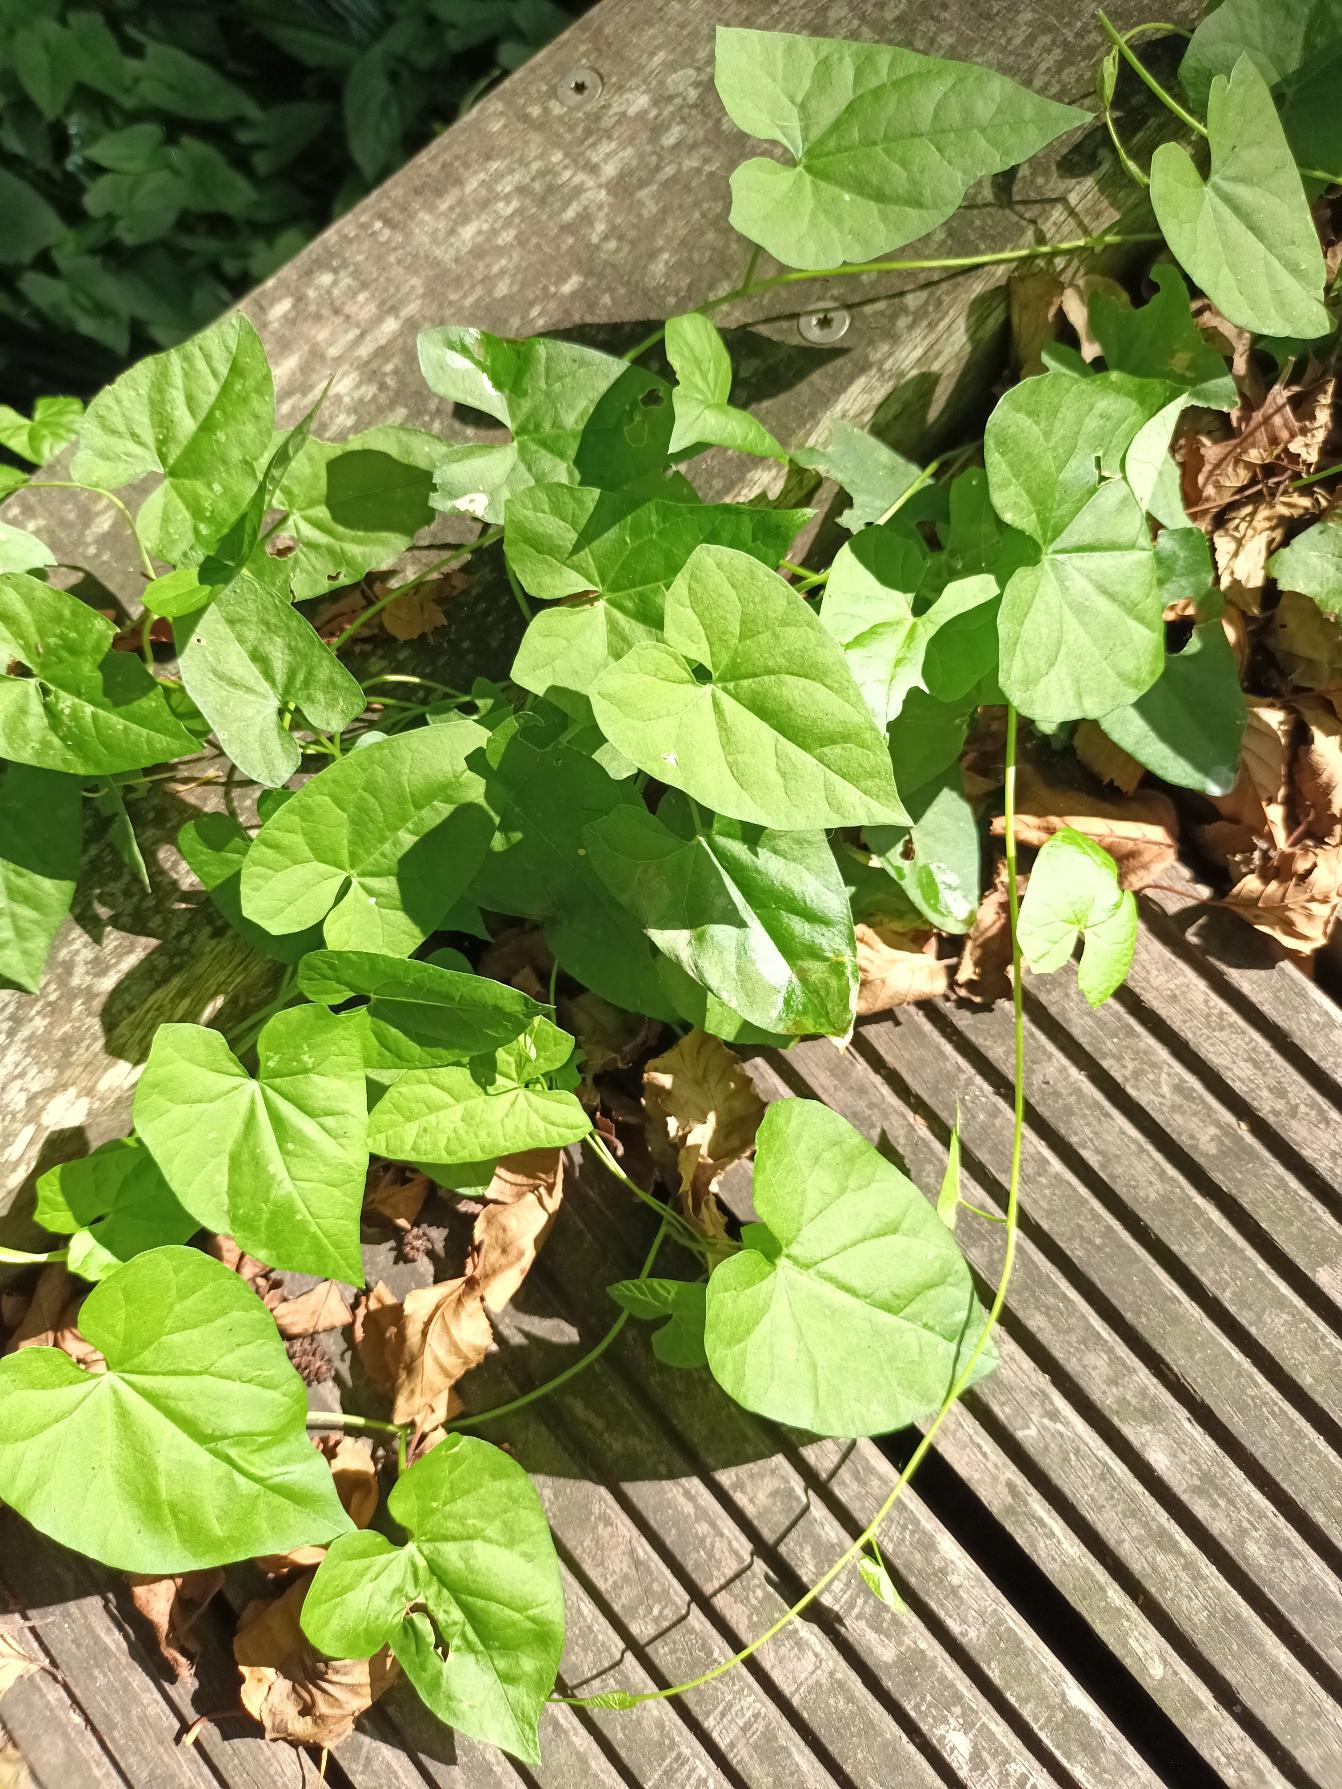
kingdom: Plantae
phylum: Tracheophyta
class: Magnoliopsida
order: Solanales
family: Convolvulaceae
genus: Calystegia
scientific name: Calystegia sepium
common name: Gærde-snerle
